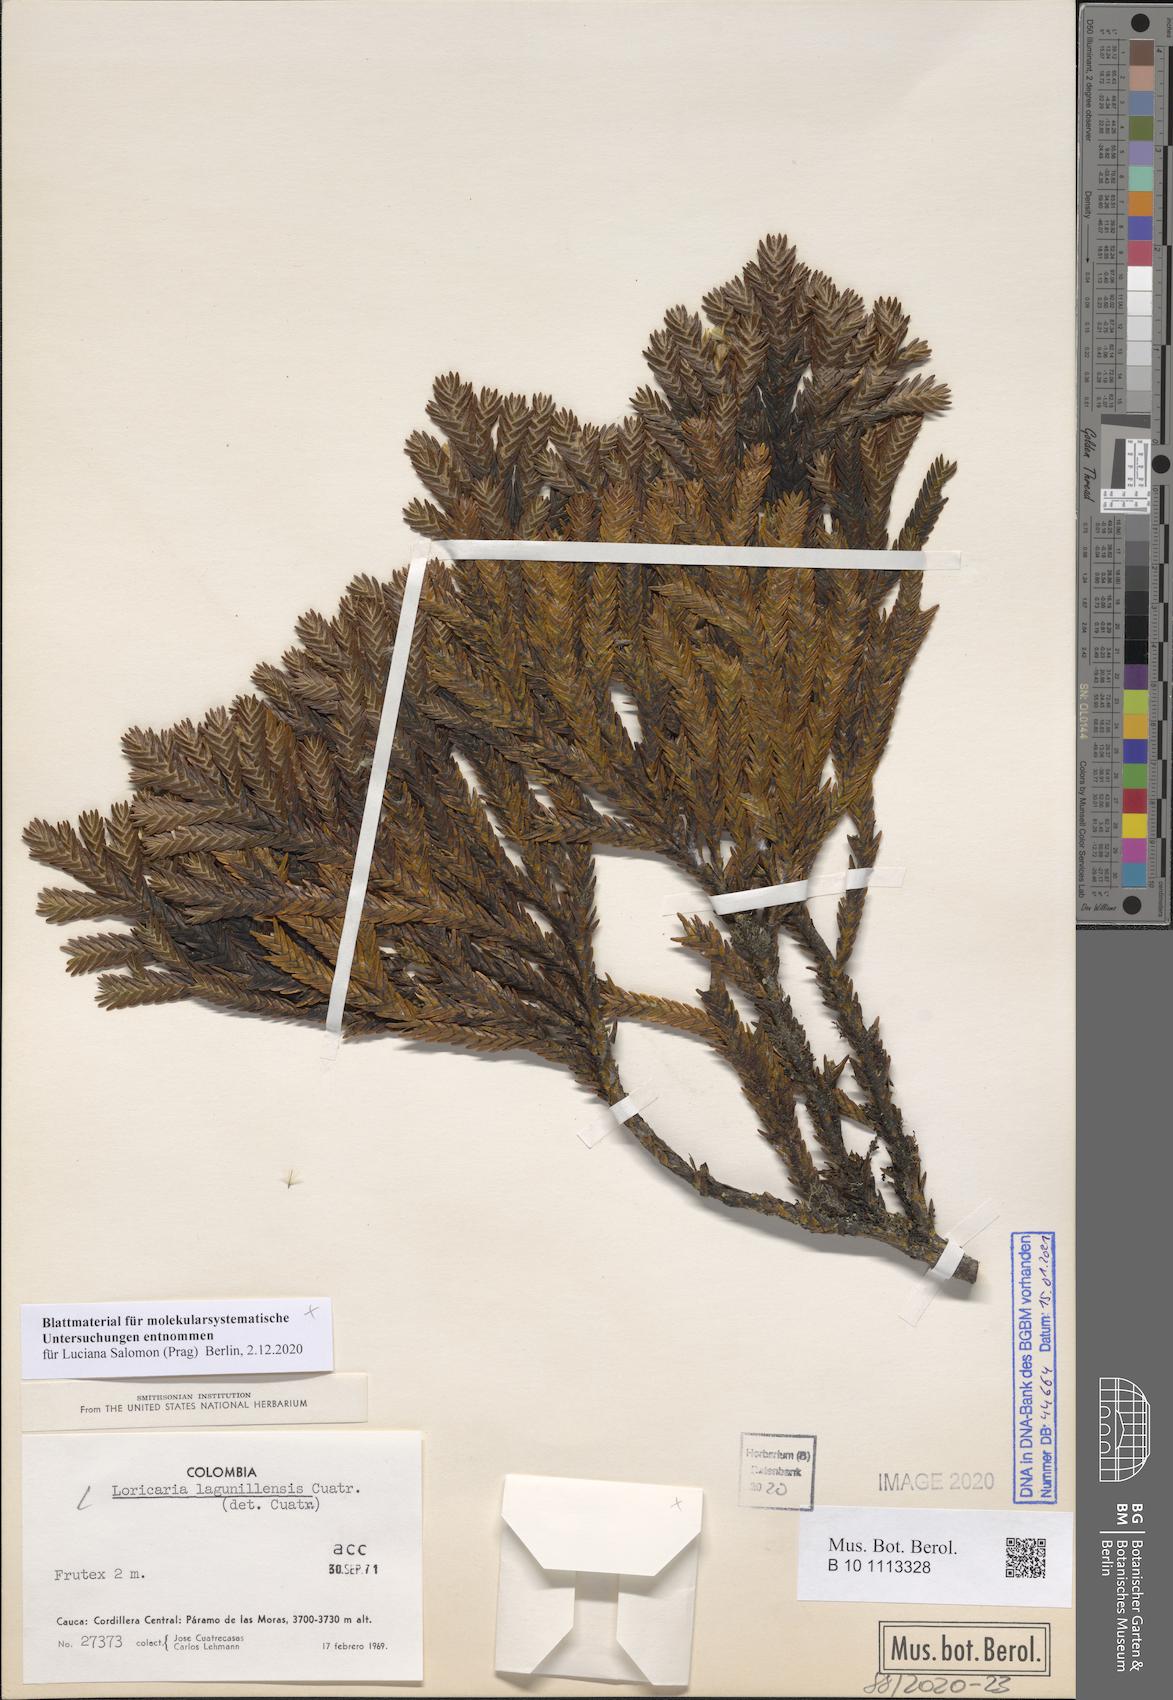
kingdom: Plantae
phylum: Tracheophyta
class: Magnoliopsida
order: Asterales
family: Asteraceae
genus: Andicolea
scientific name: Andicolea lagunillensis
